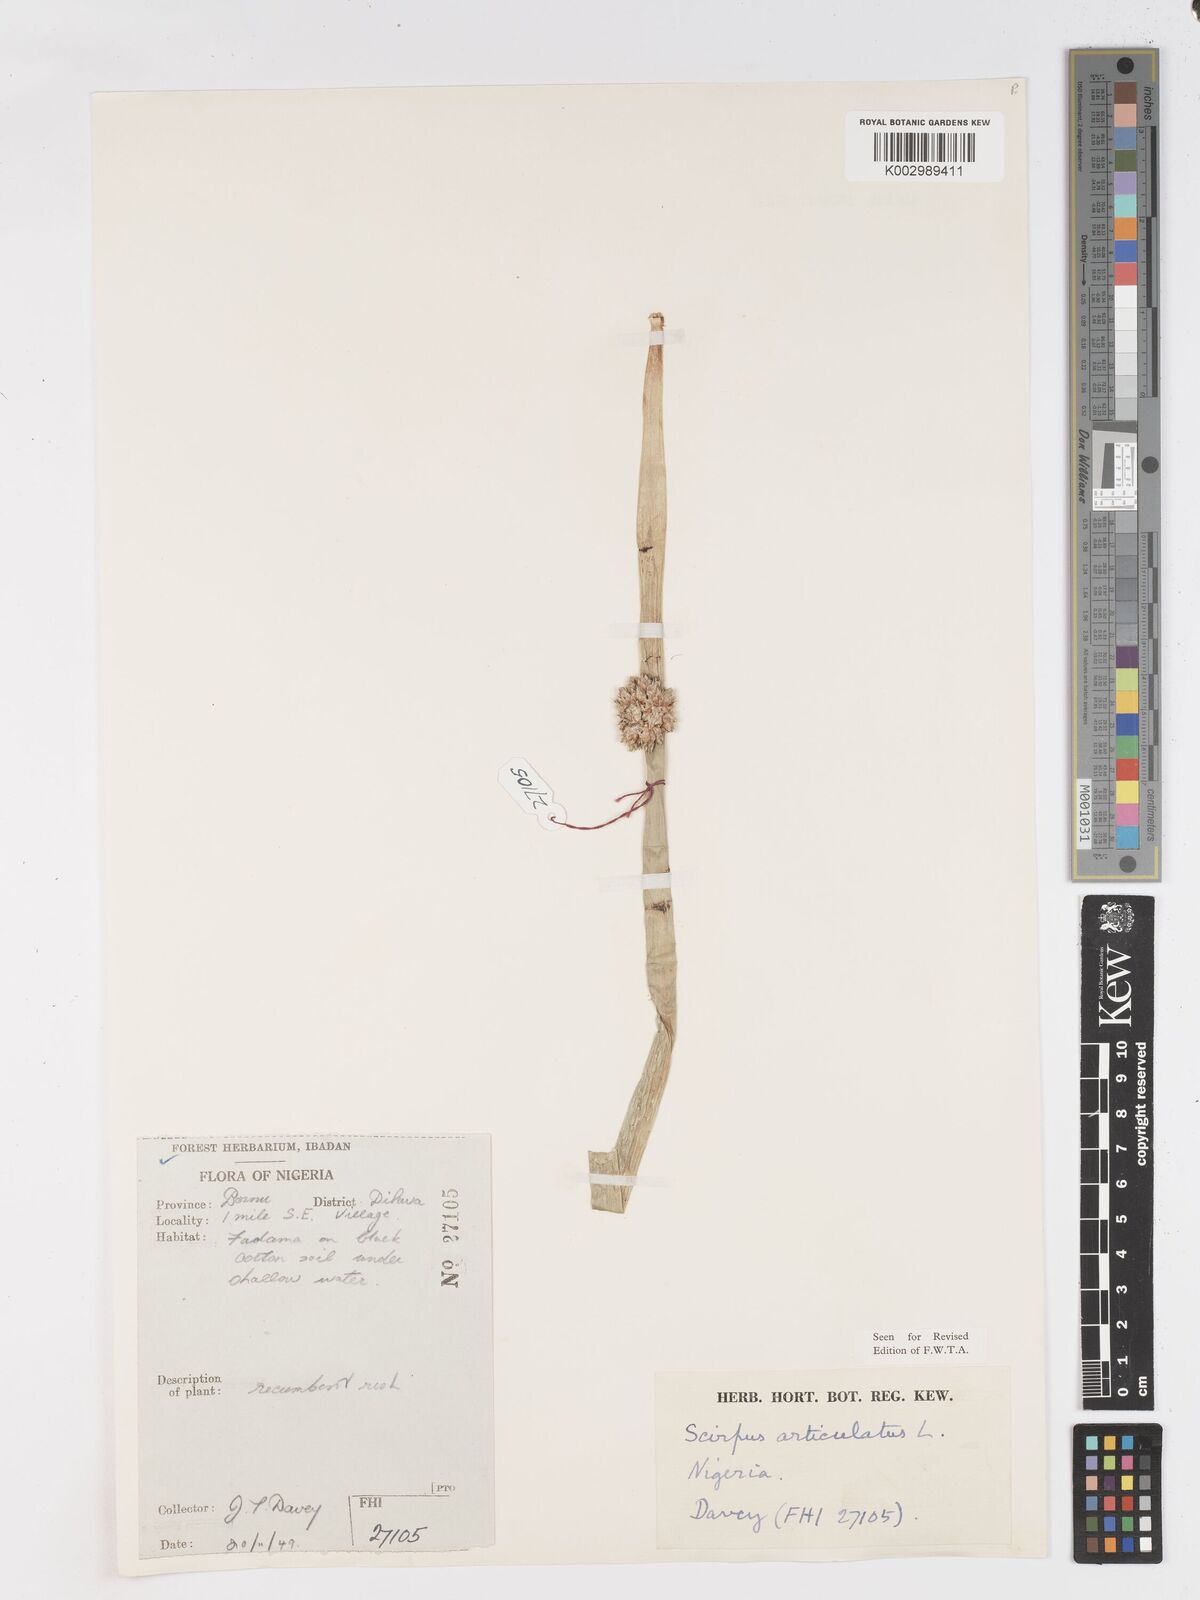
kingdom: Plantae
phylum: Tracheophyta
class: Liliopsida
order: Poales
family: Cyperaceae
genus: Schoenoplectiella
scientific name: Schoenoplectiella articulata
